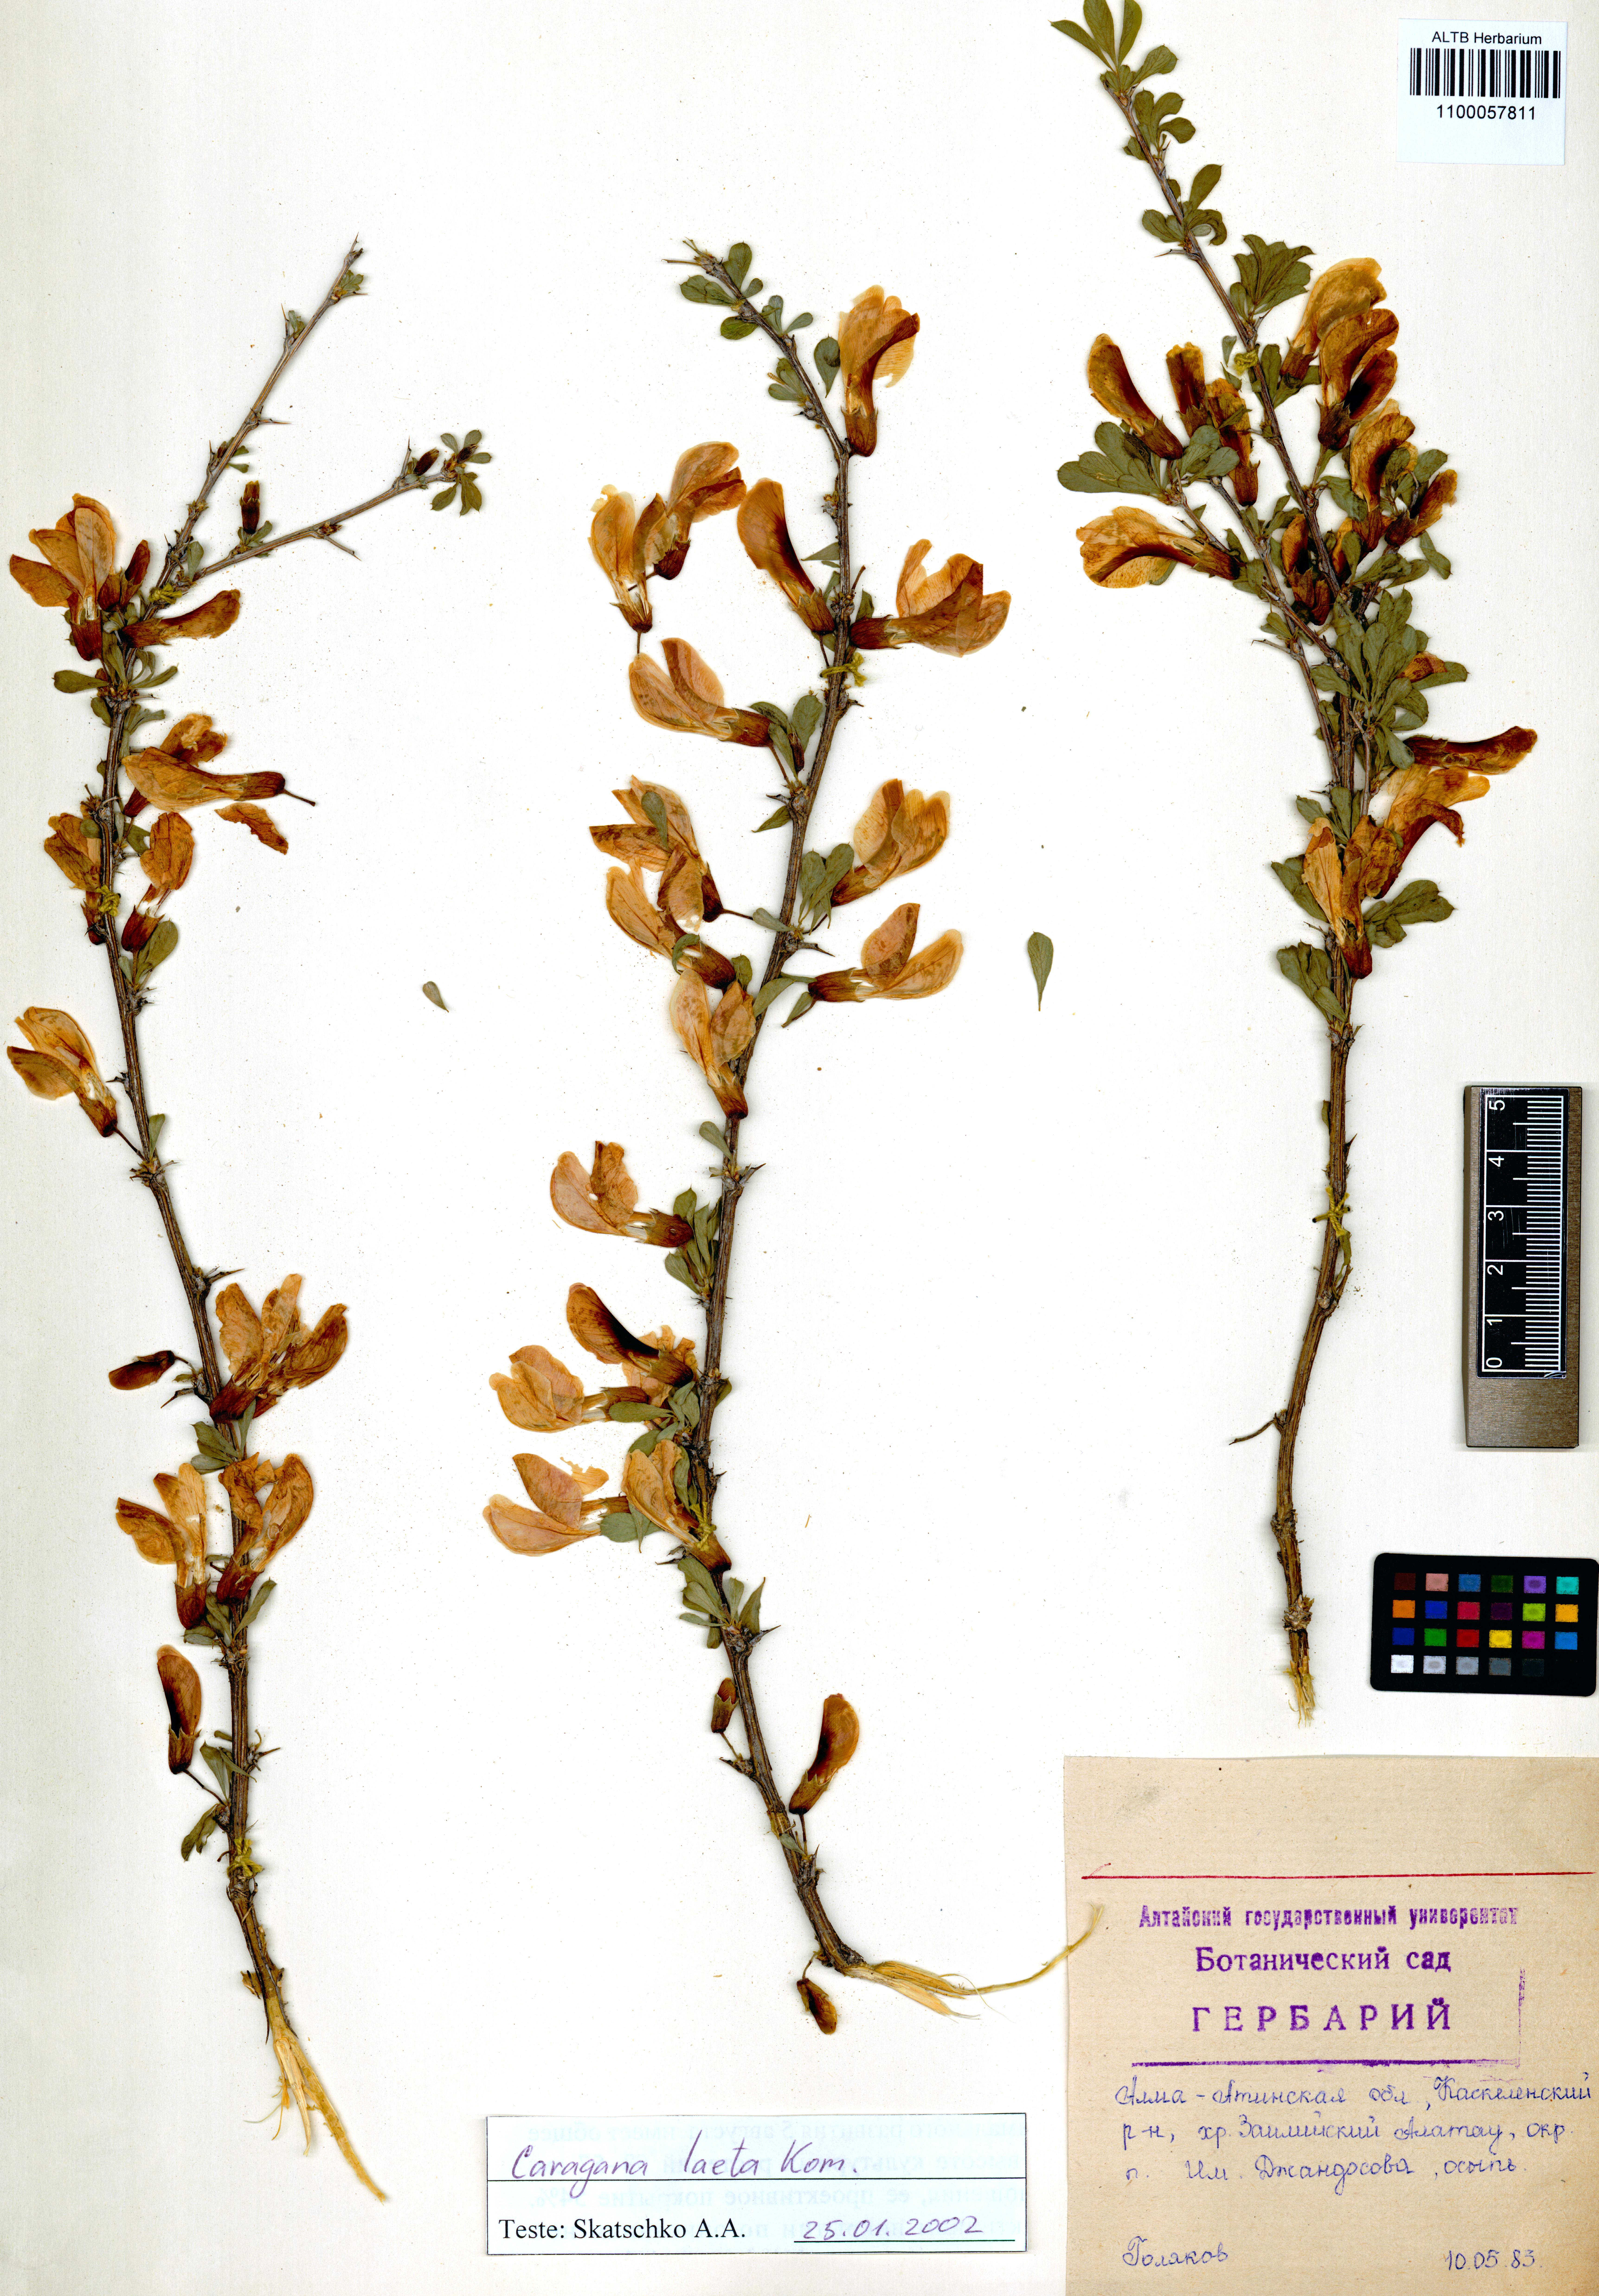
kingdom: Plantae
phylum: Tracheophyta
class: Magnoliopsida
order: Fabales
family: Fabaceae
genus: Caragana
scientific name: Caragana laeta
